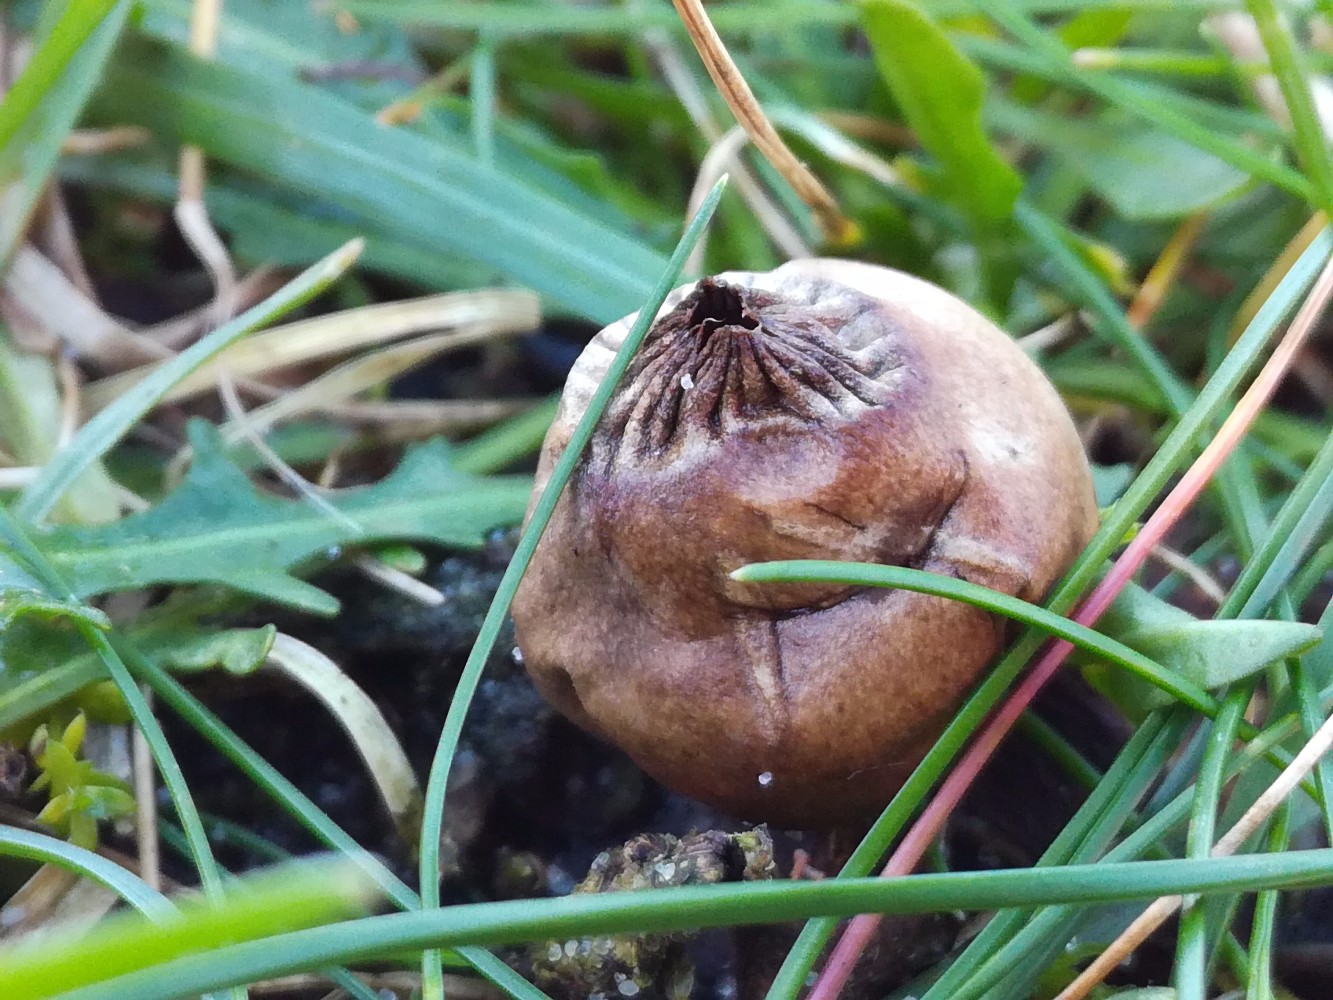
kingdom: Fungi
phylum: Basidiomycota
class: Agaricomycetes
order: Geastrales
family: Geastraceae
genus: Geastrum
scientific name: Geastrum striatum
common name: dværg-stjernebold
